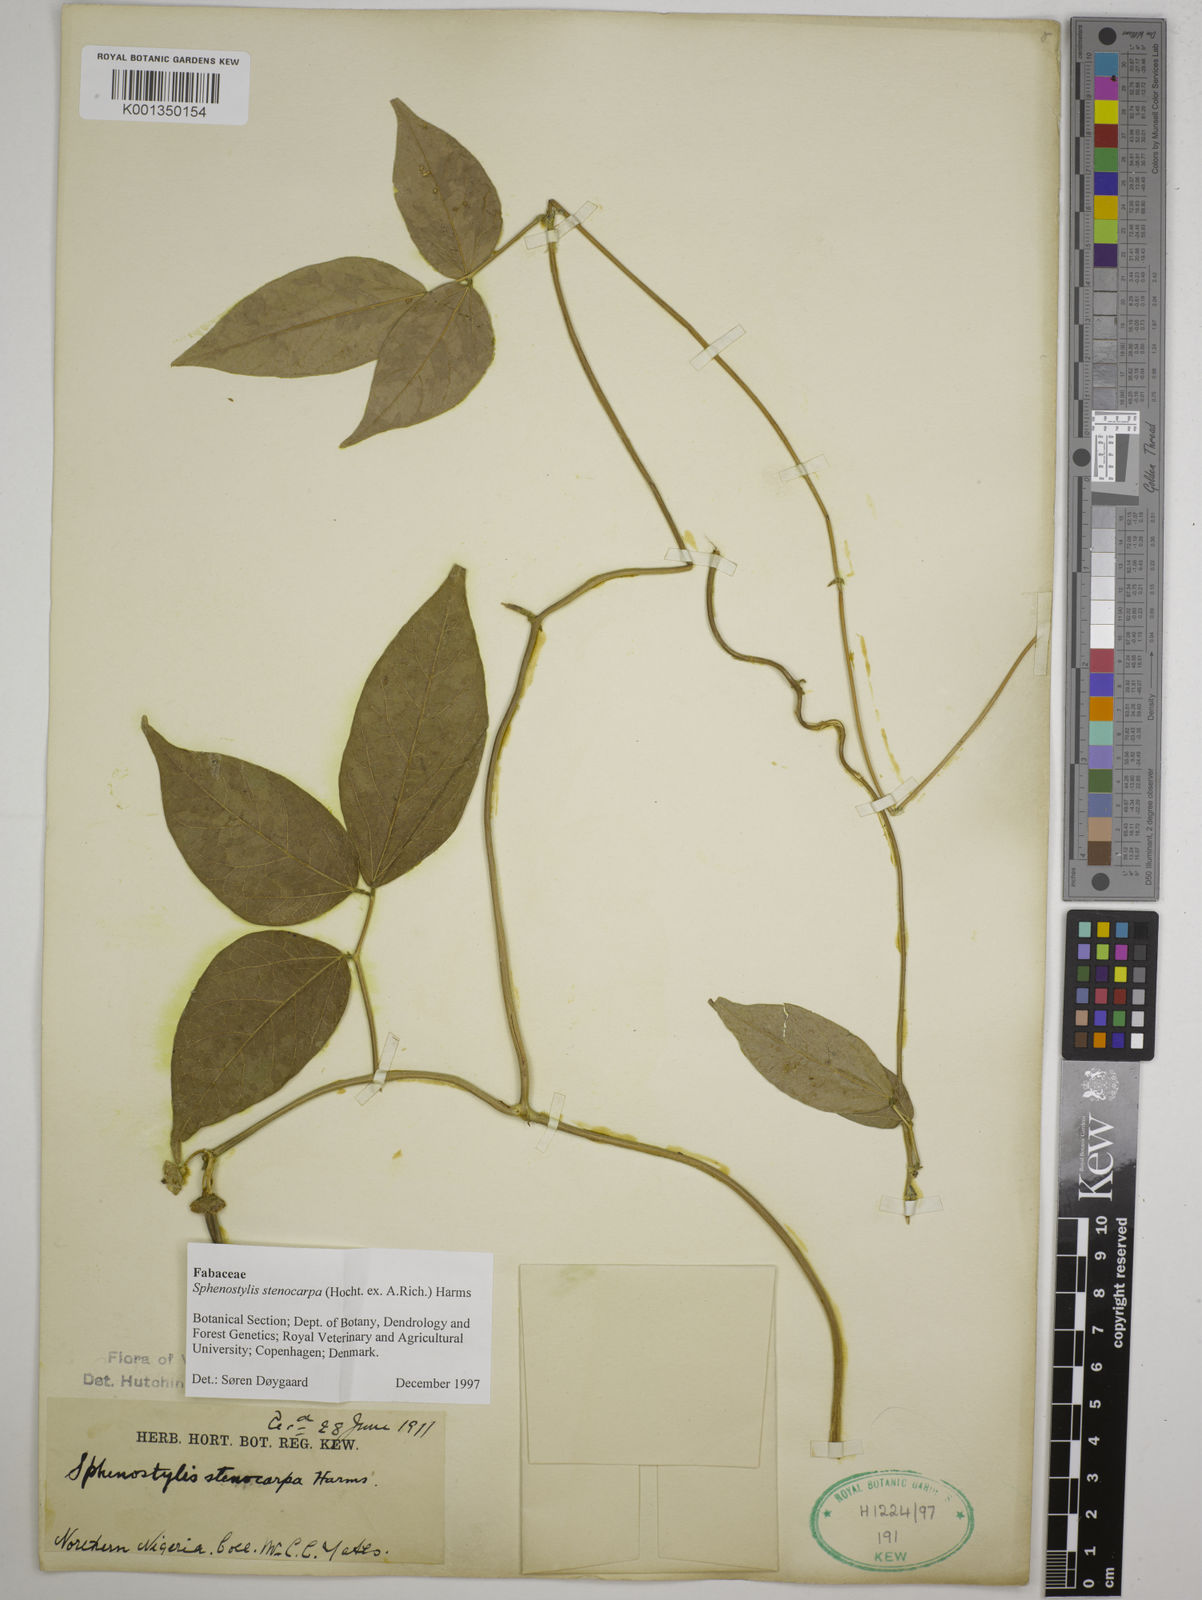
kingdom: Plantae
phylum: Tracheophyta
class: Magnoliopsida
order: Fabales
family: Fabaceae
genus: Sphenostylis
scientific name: Sphenostylis stenocarpa
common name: Yam-pea
